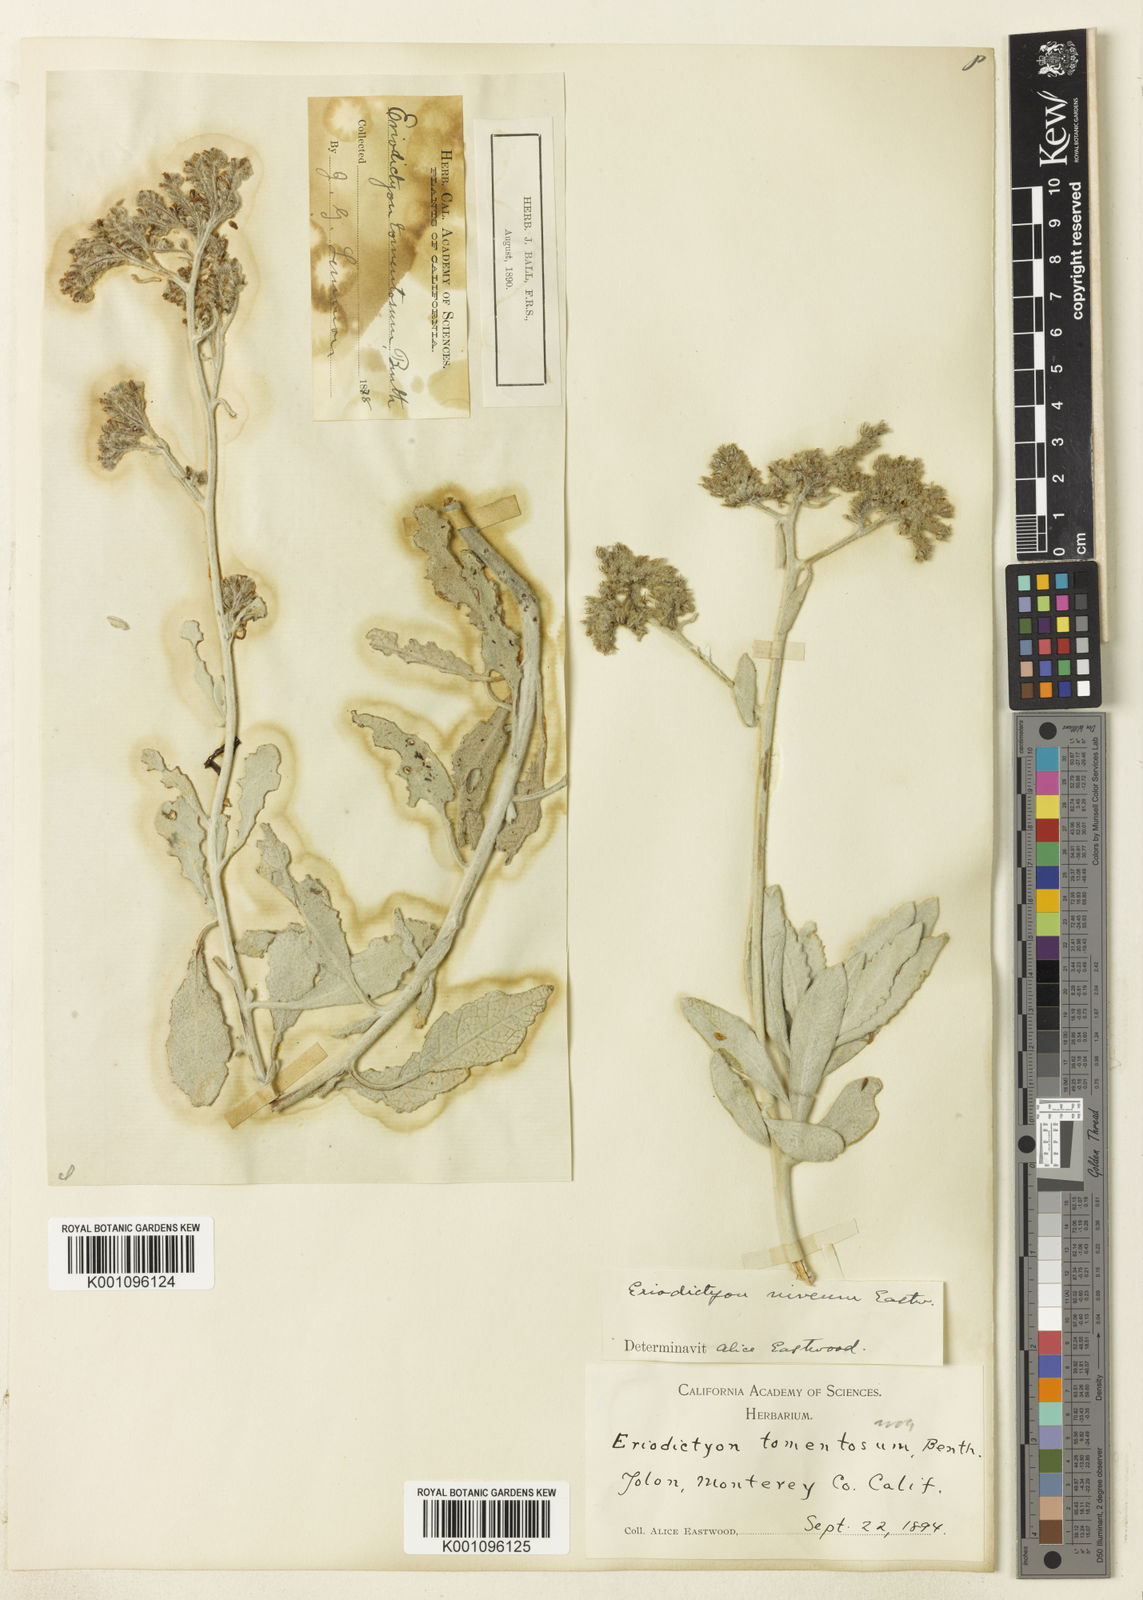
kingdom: Plantae
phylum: Tracheophyta
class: Pinopsida
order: Pinales
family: Podocarpaceae
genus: Podocarpus
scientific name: Podocarpus
